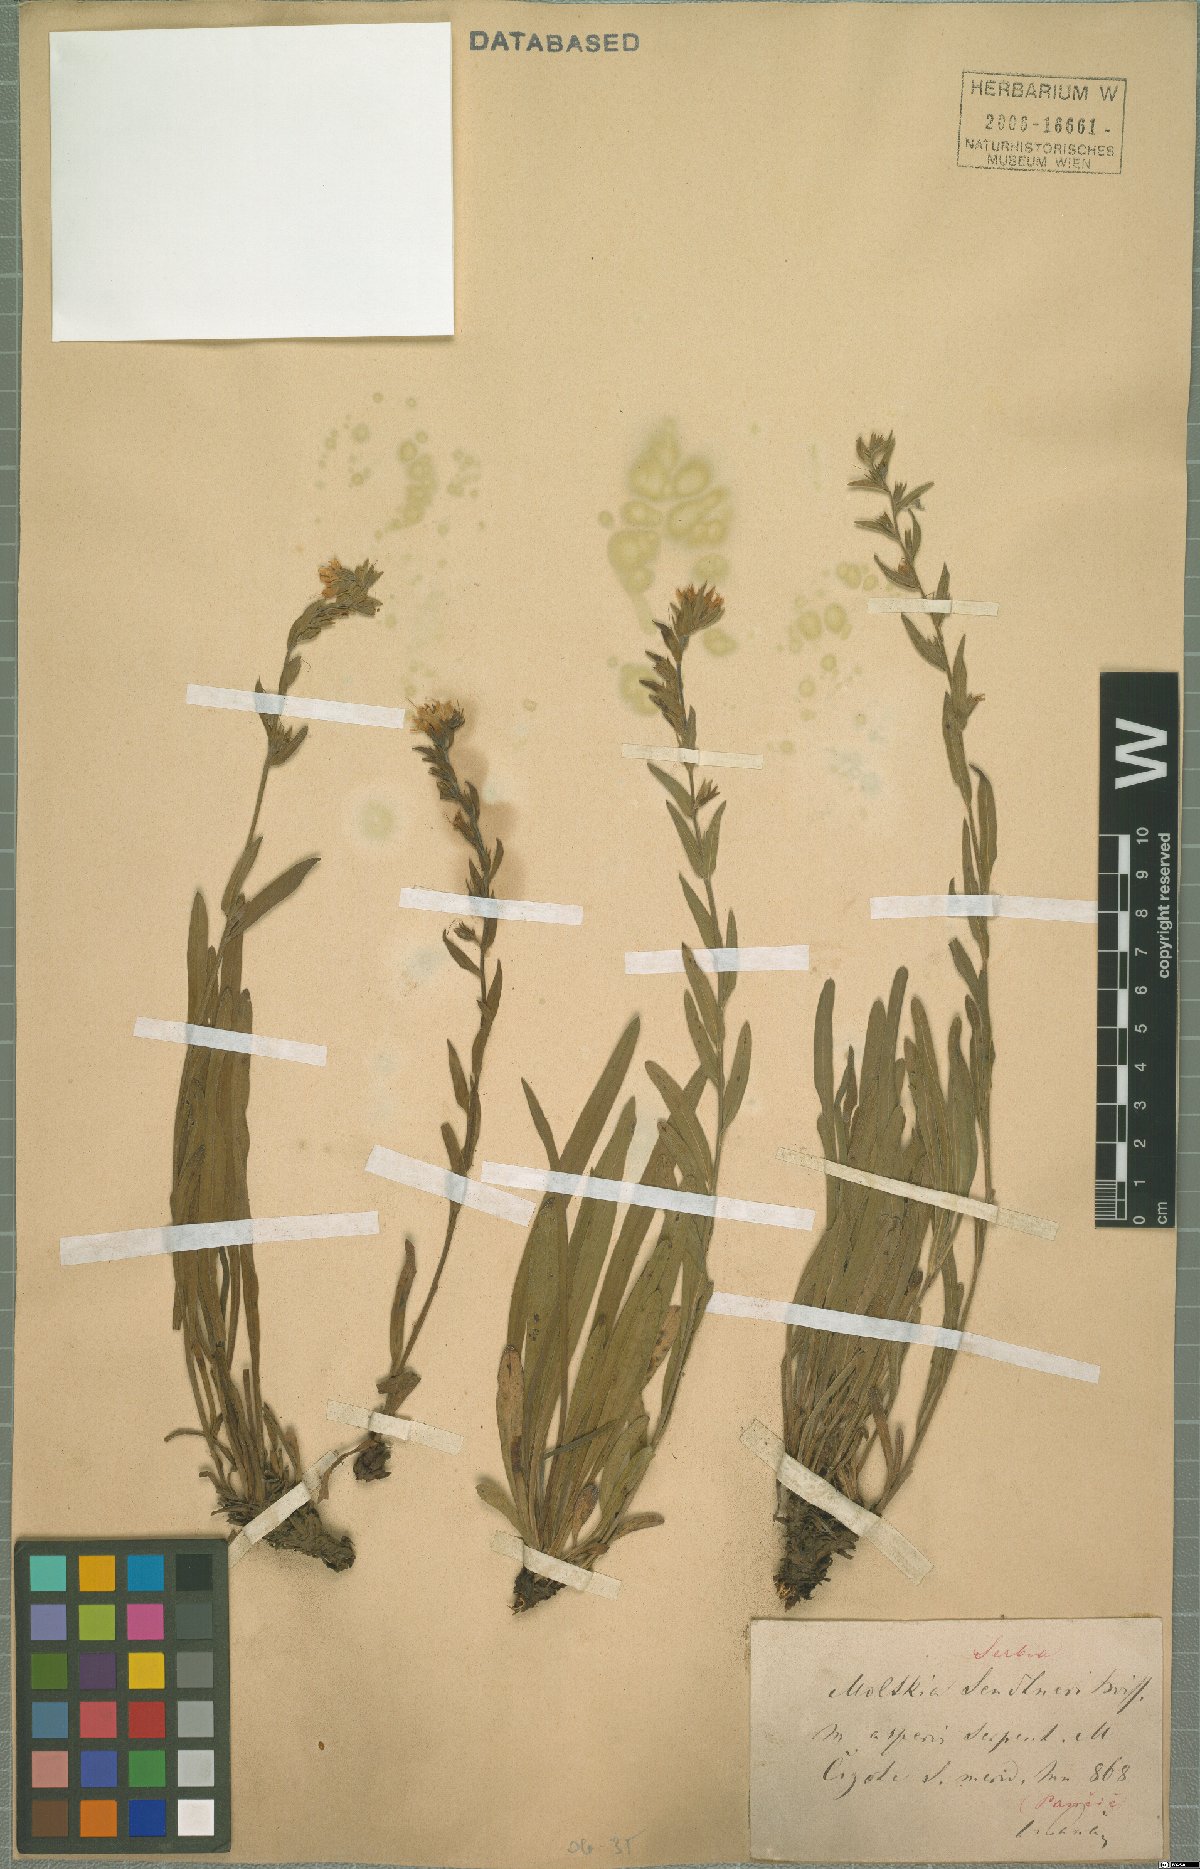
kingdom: Plantae
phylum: Tracheophyta
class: Magnoliopsida
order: Boraginales
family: Boraginaceae
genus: Halacsya
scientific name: Halacsya sendtneri
